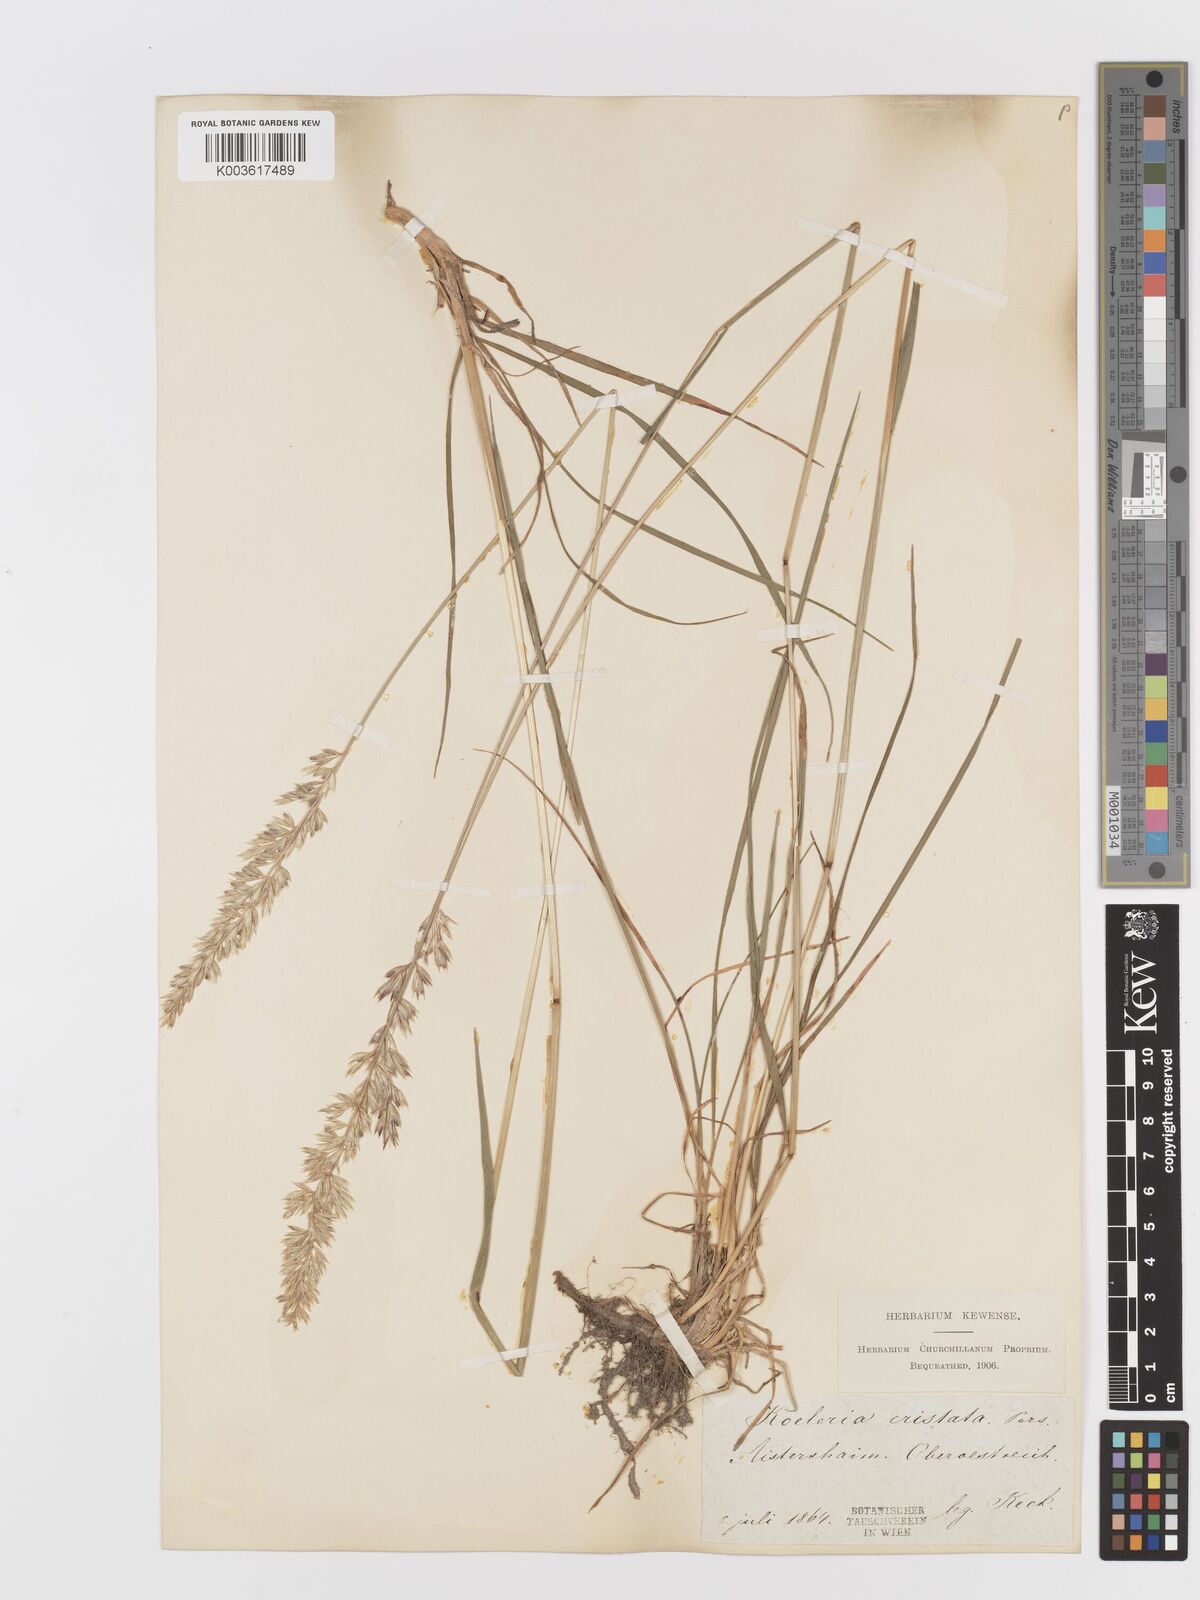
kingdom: Plantae
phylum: Tracheophyta
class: Liliopsida
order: Poales
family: Poaceae
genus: Koeleria
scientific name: Koeleria
